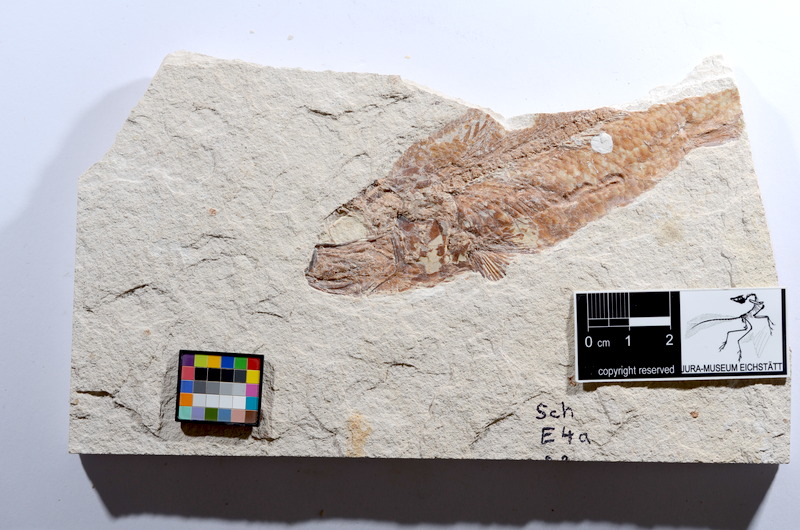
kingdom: Animalia
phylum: Chordata
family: Ascalaboidae
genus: Tharsis
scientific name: Tharsis dubius
